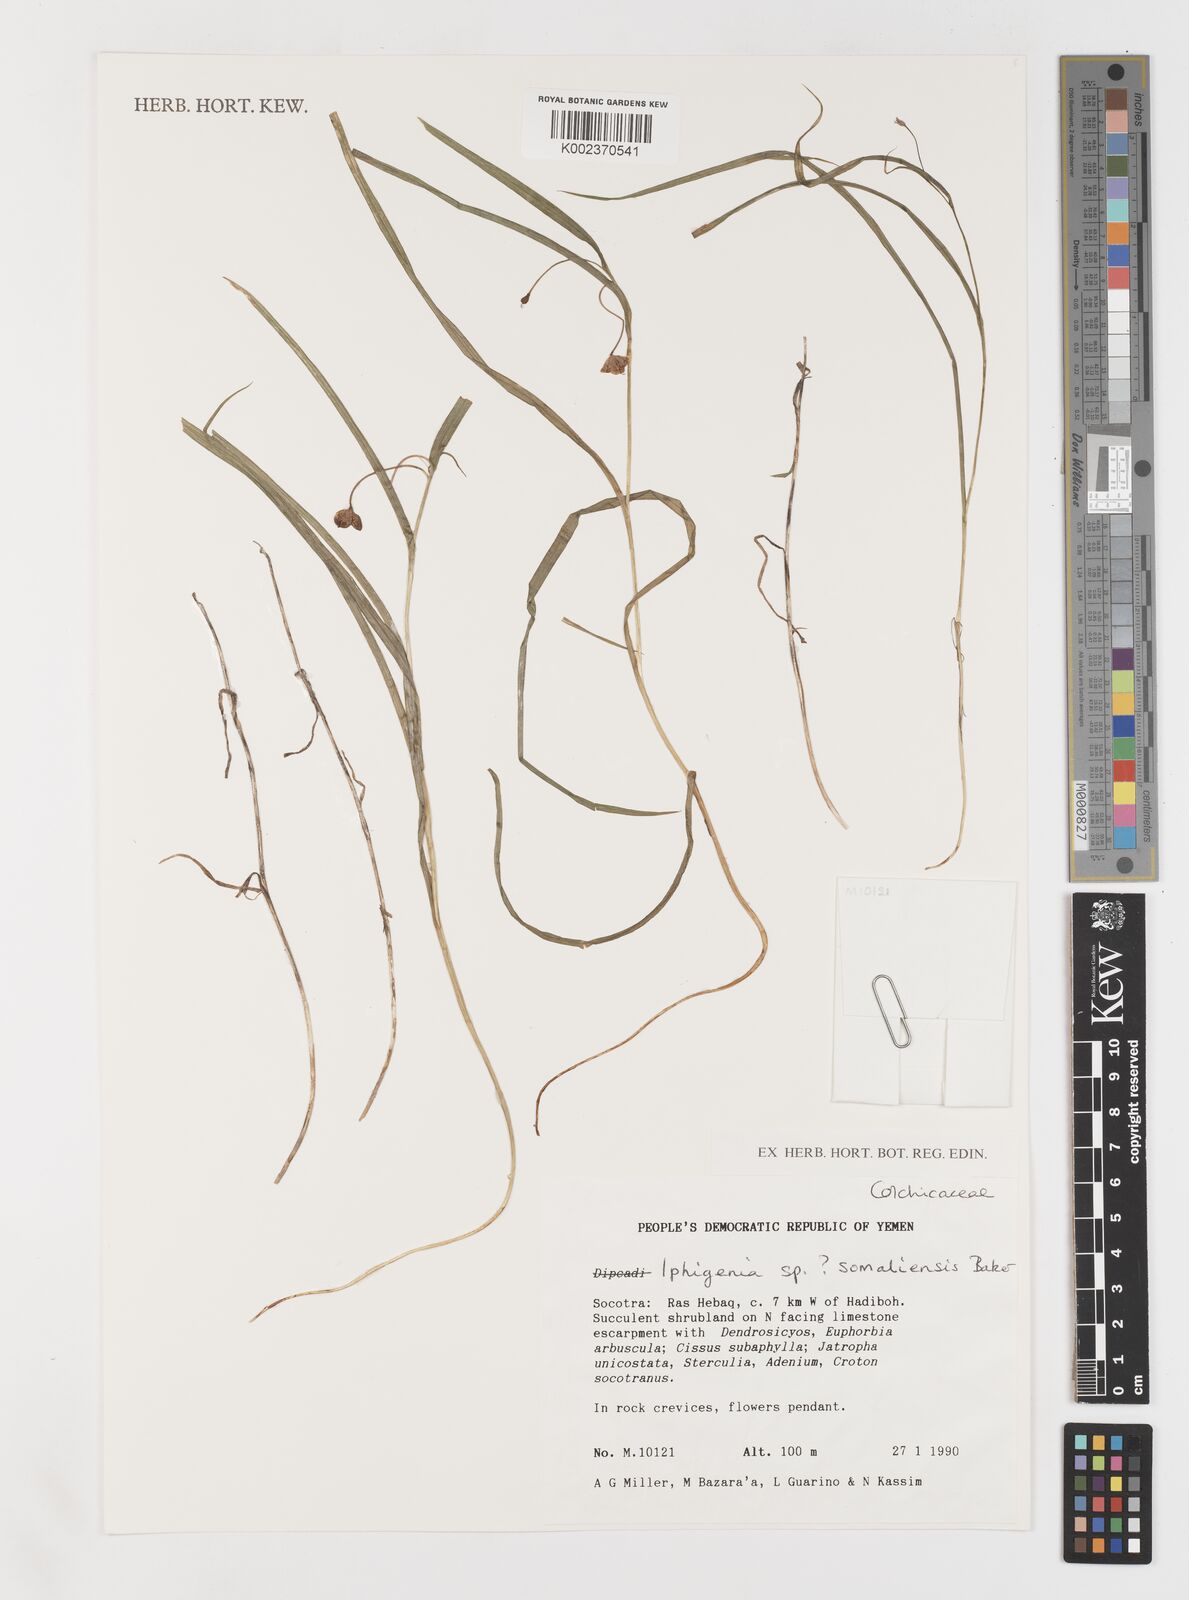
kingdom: Plantae
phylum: Tracheophyta
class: Liliopsida
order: Liliales
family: Colchicaceae
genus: Iphigenia
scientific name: Iphigenia oliveri
